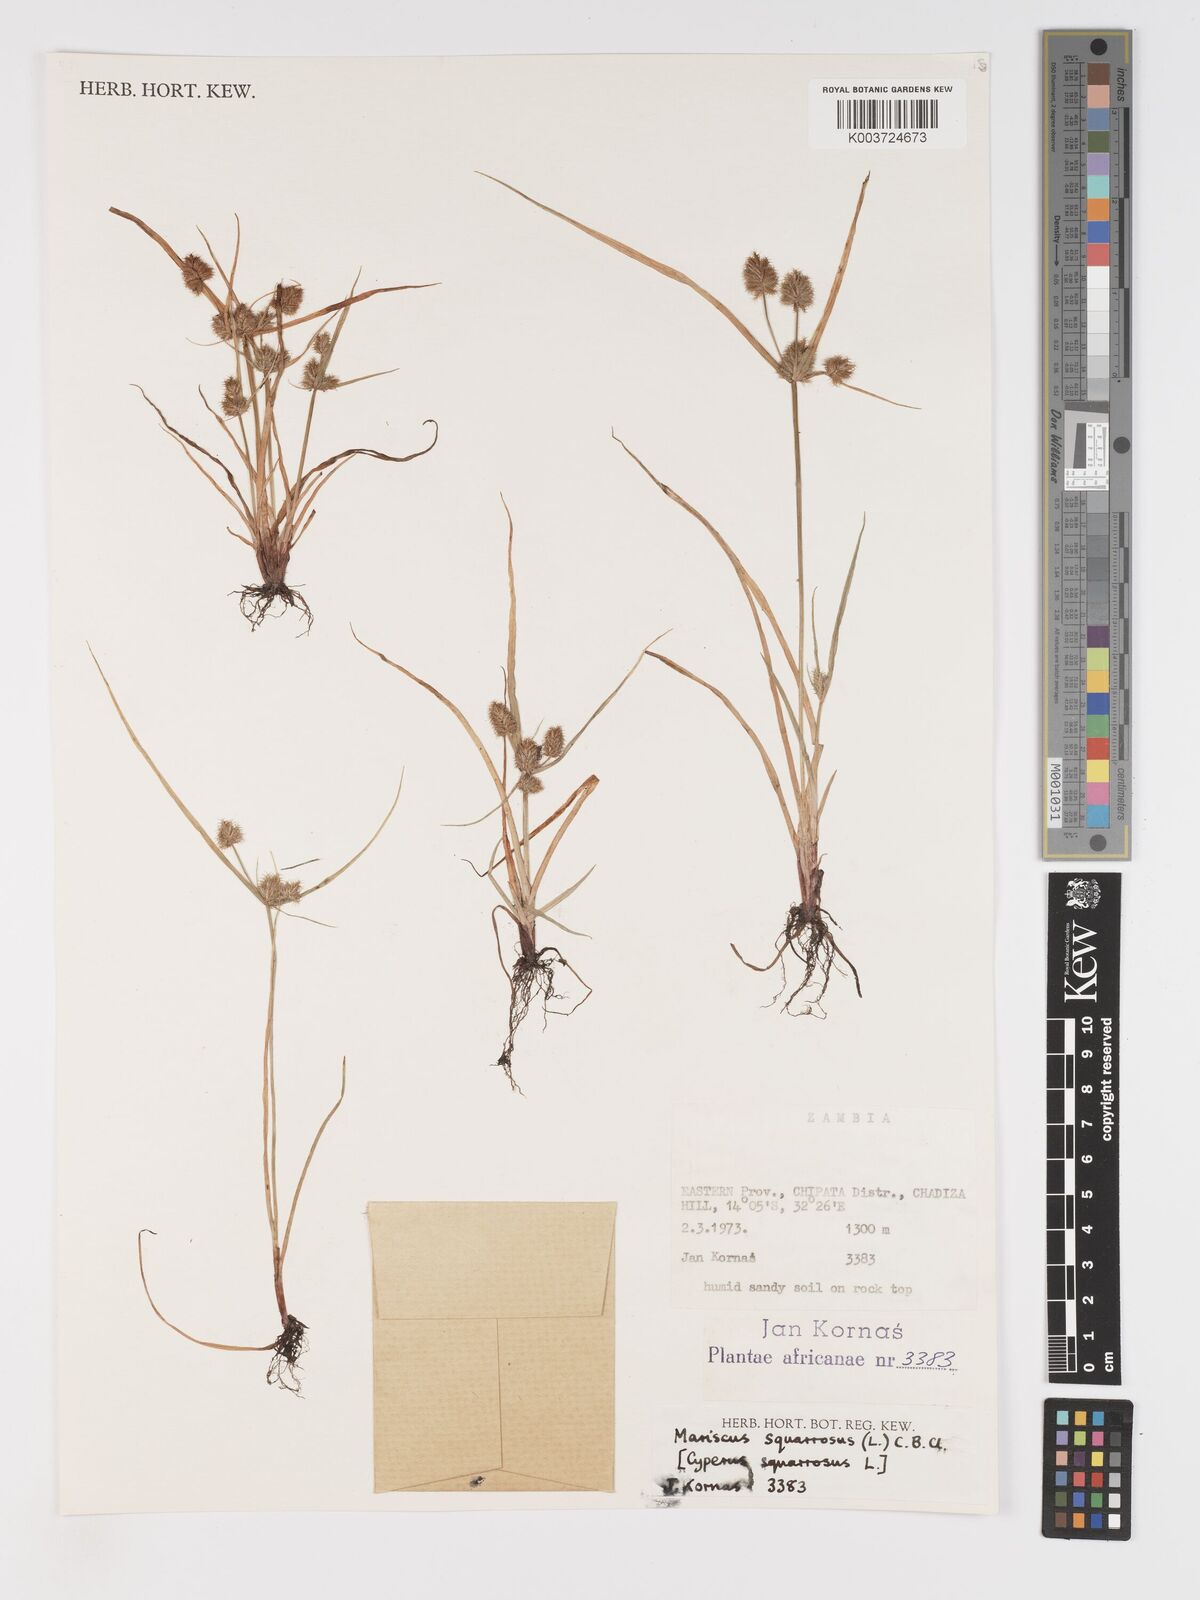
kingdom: Plantae
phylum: Tracheophyta
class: Liliopsida
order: Poales
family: Cyperaceae
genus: Cyperus
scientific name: Cyperus squarrosus
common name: Awned cyperus
